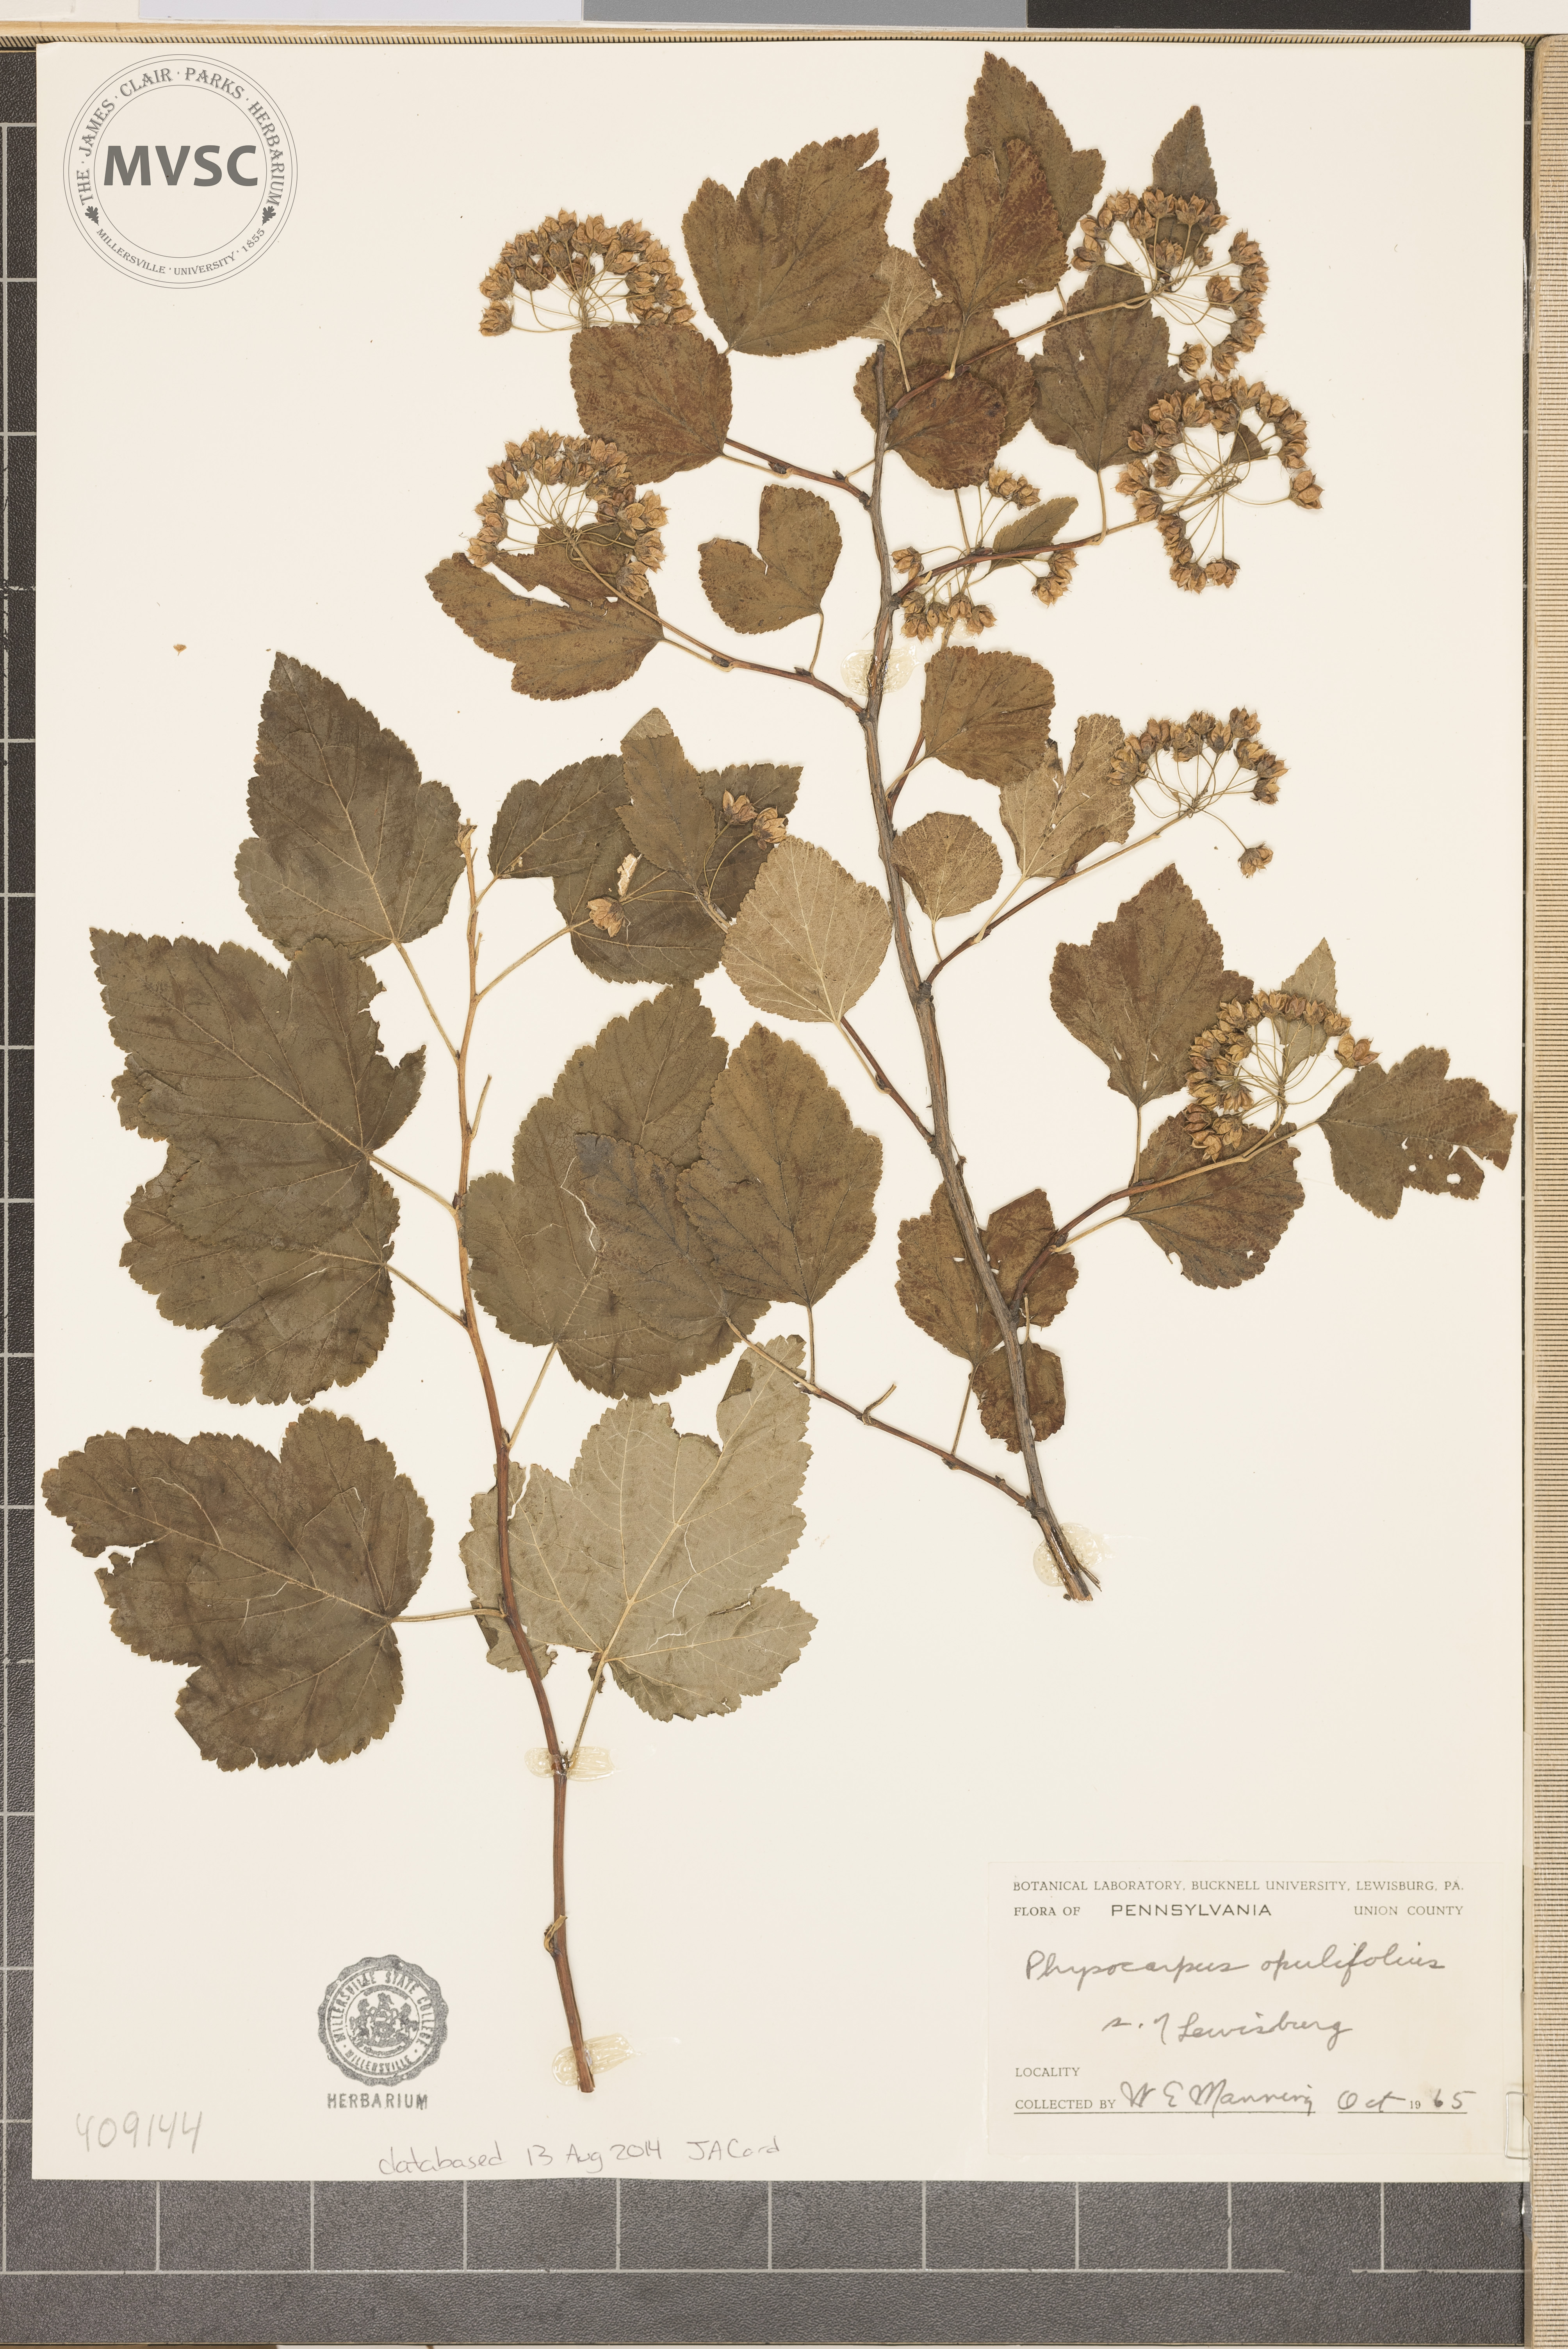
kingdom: Plantae
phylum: Tracheophyta
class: Magnoliopsida
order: Rosales
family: Rosaceae
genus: Physocarpus
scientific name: Physocarpus opulifolius
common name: Ninebark
